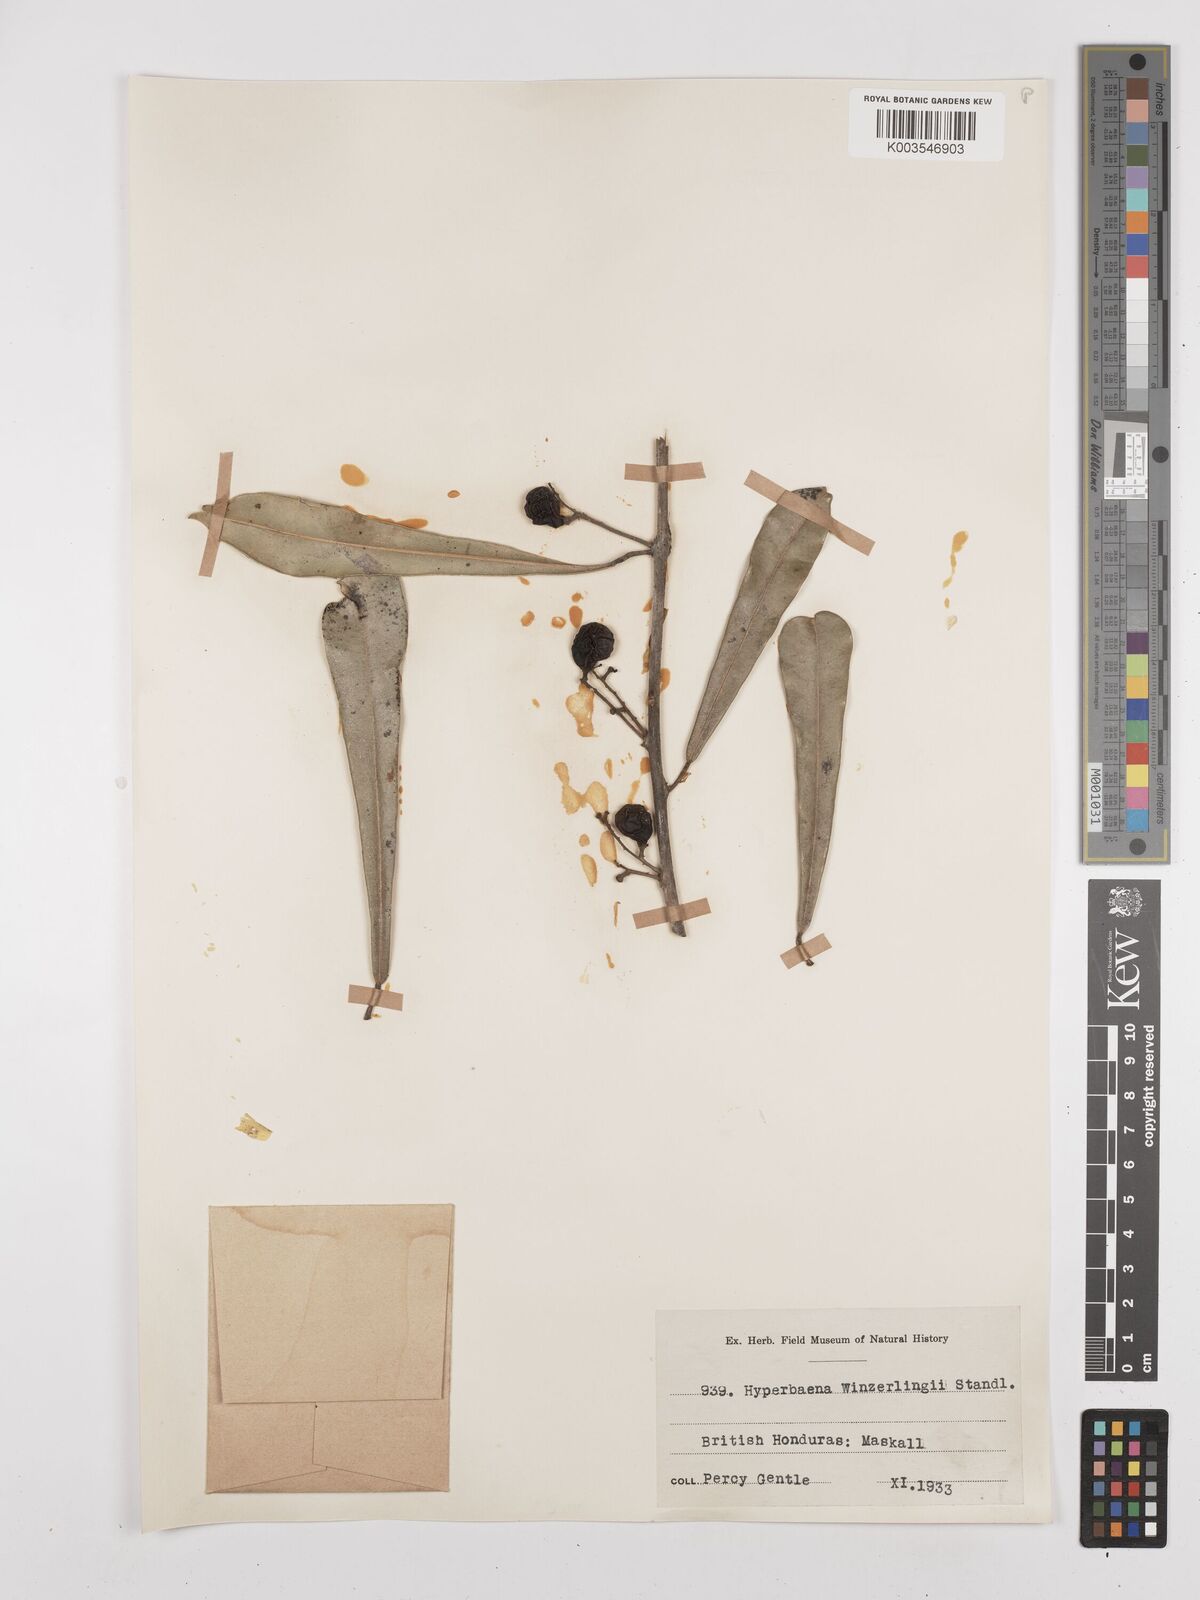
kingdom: Plantae
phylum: Tracheophyta
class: Magnoliopsida
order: Ranunculales
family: Menispermaceae
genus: Hyperbaena
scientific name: Hyperbaena winzerlingii
